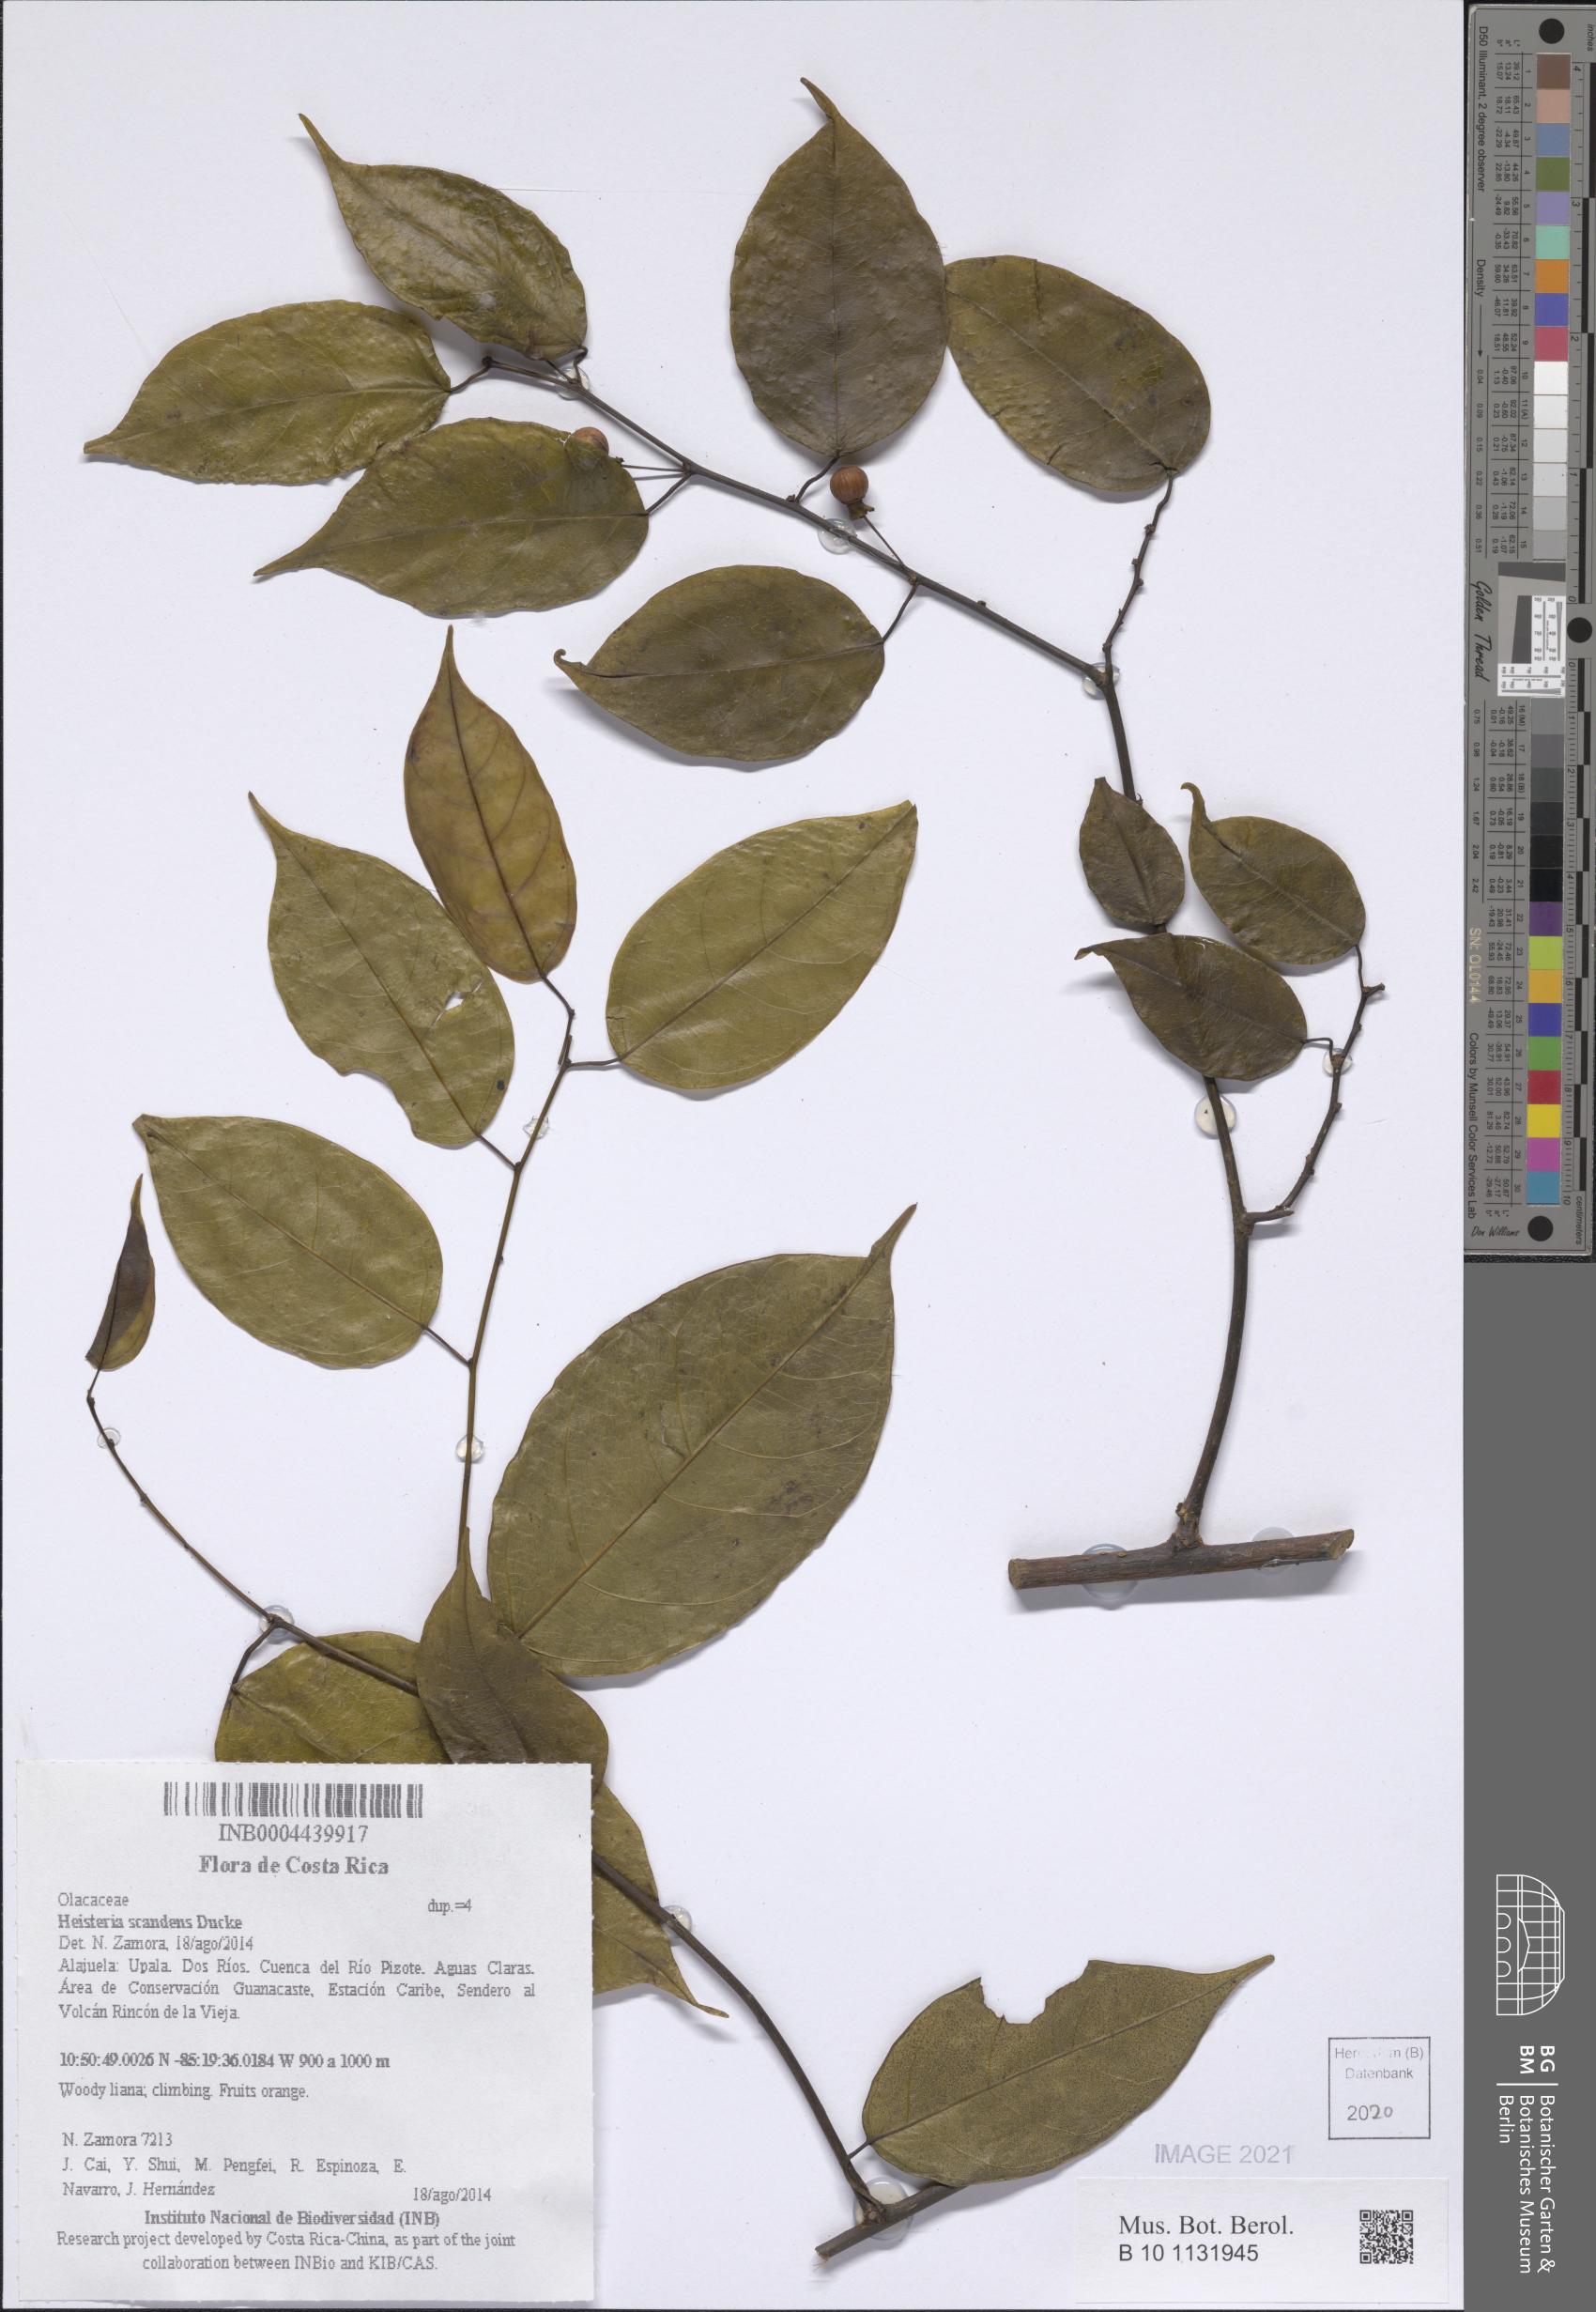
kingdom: Plantae
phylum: Tracheophyta
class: Magnoliopsida
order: Santalales
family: Erythropalaceae
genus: Heisteria
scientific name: Heisteria scandens
